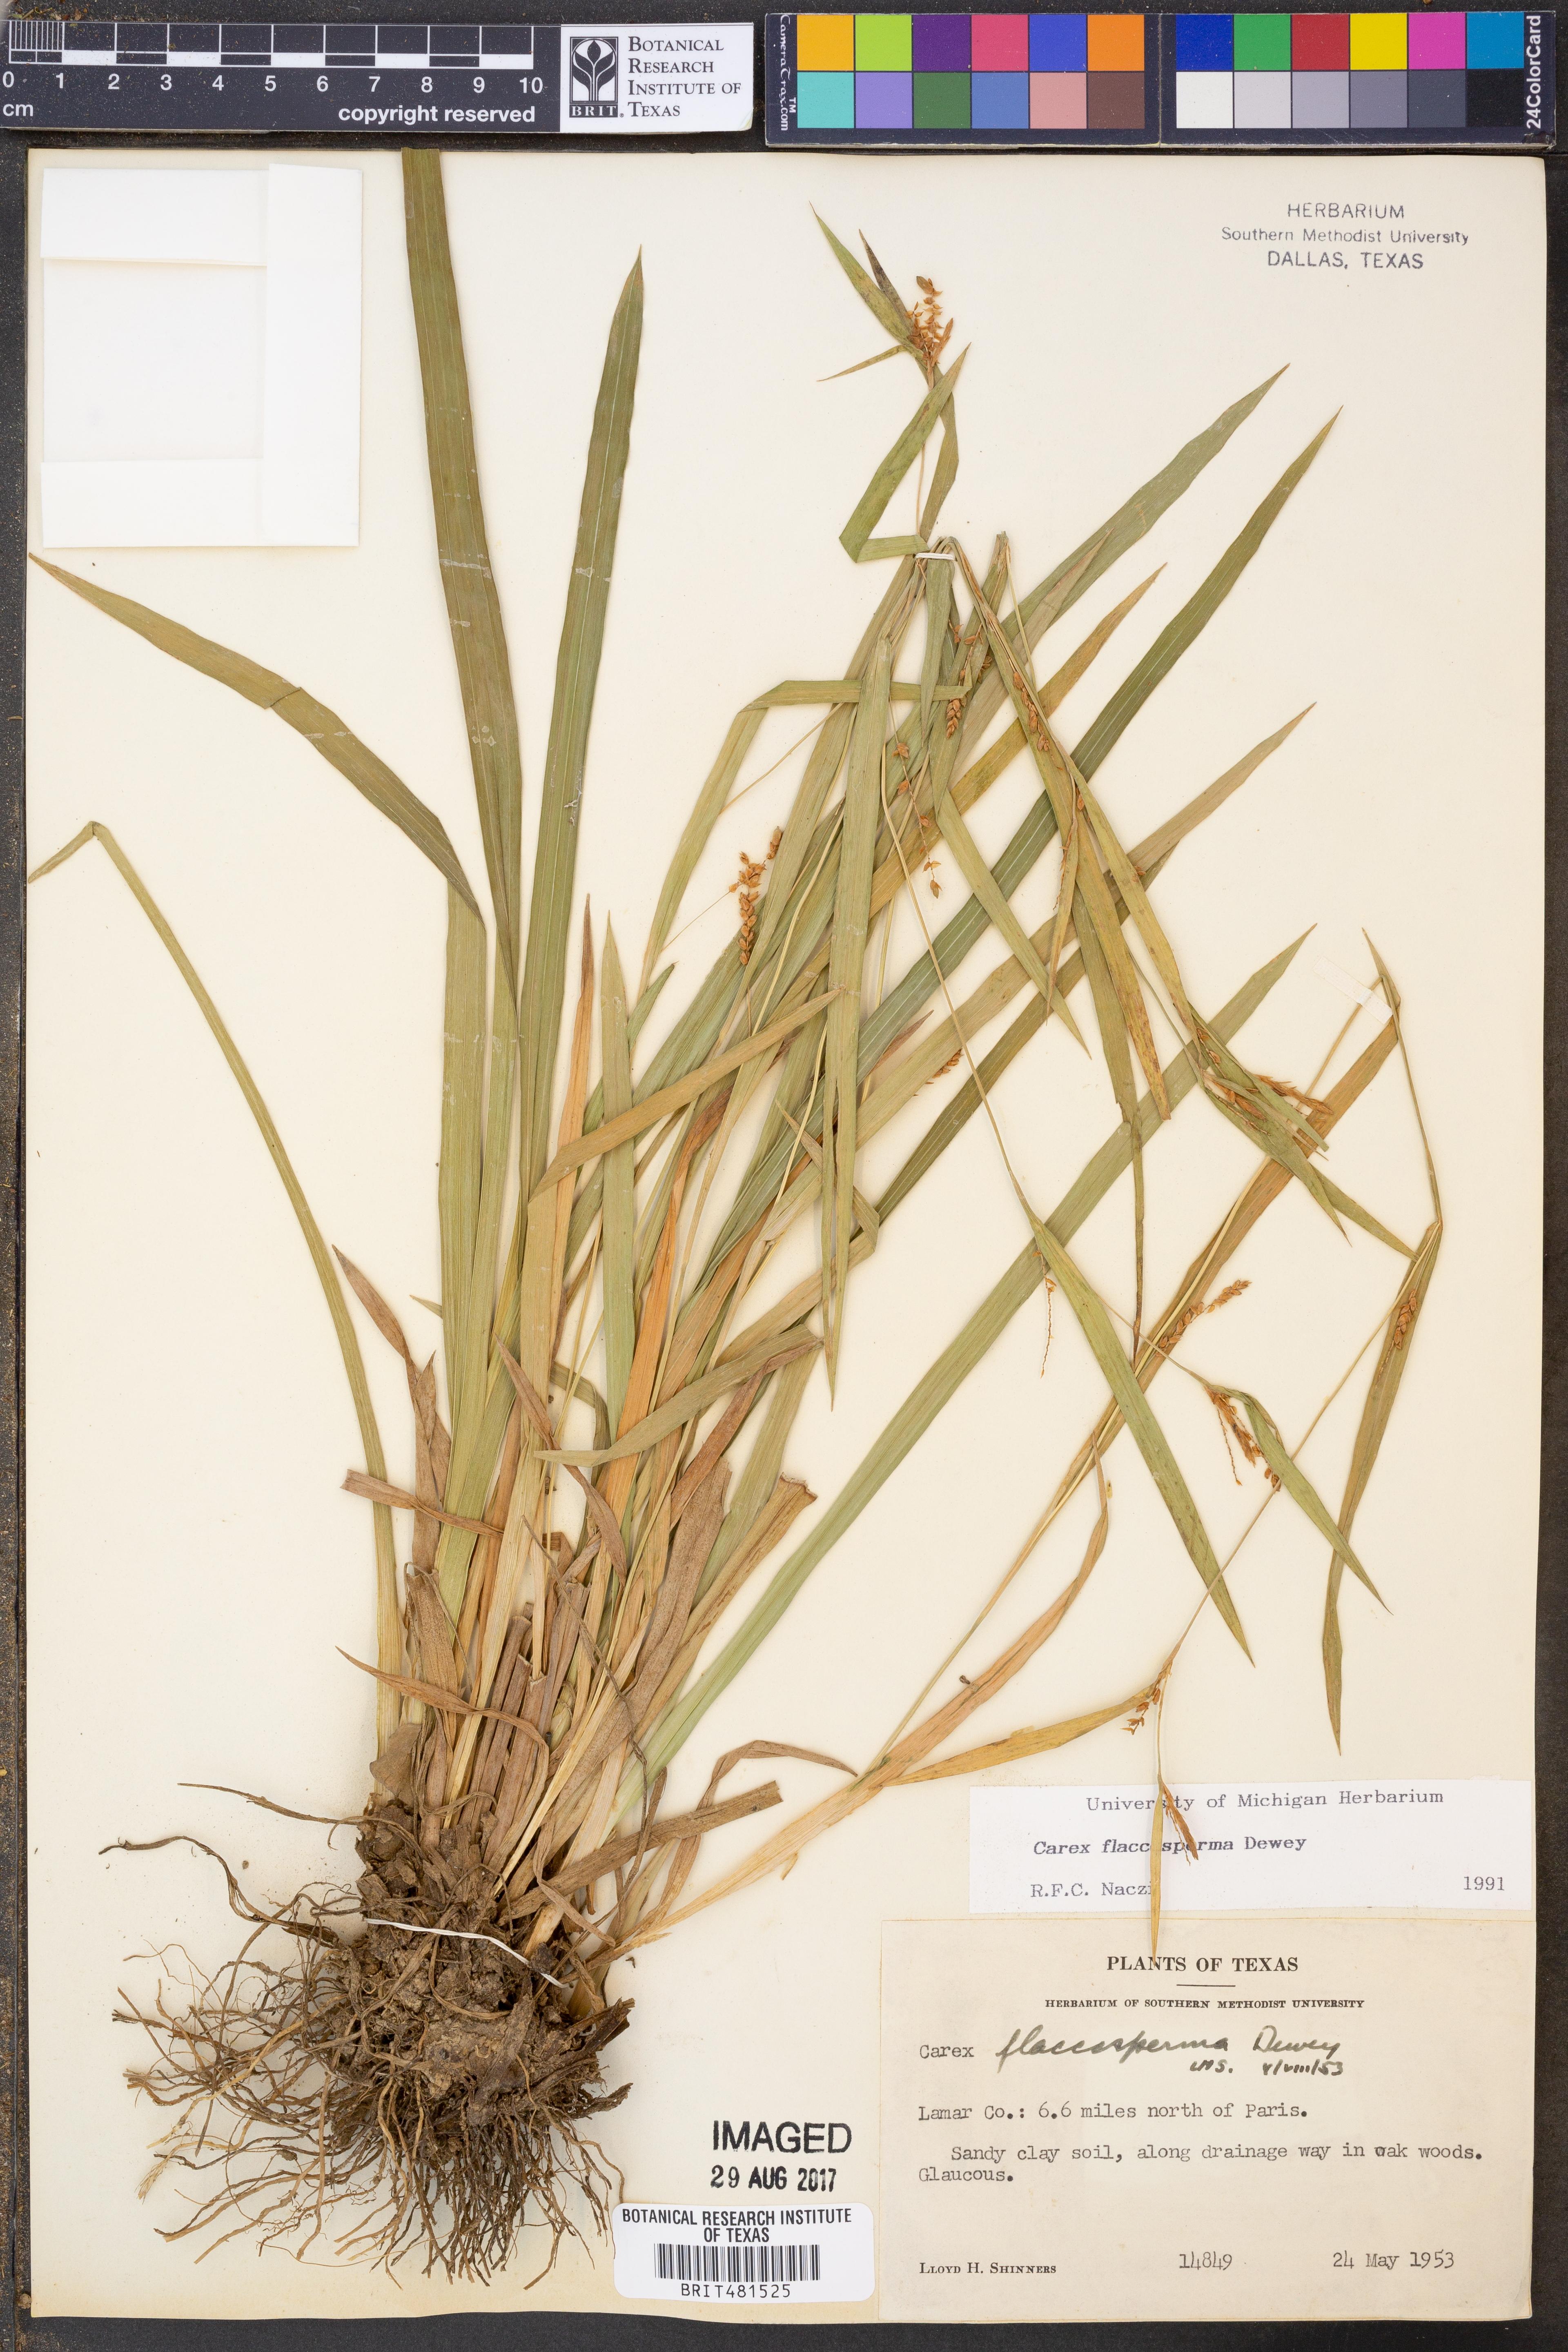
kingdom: Plantae
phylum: Tracheophyta
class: Liliopsida
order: Poales
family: Cyperaceae
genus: Carex
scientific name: Carex flaccosperma
